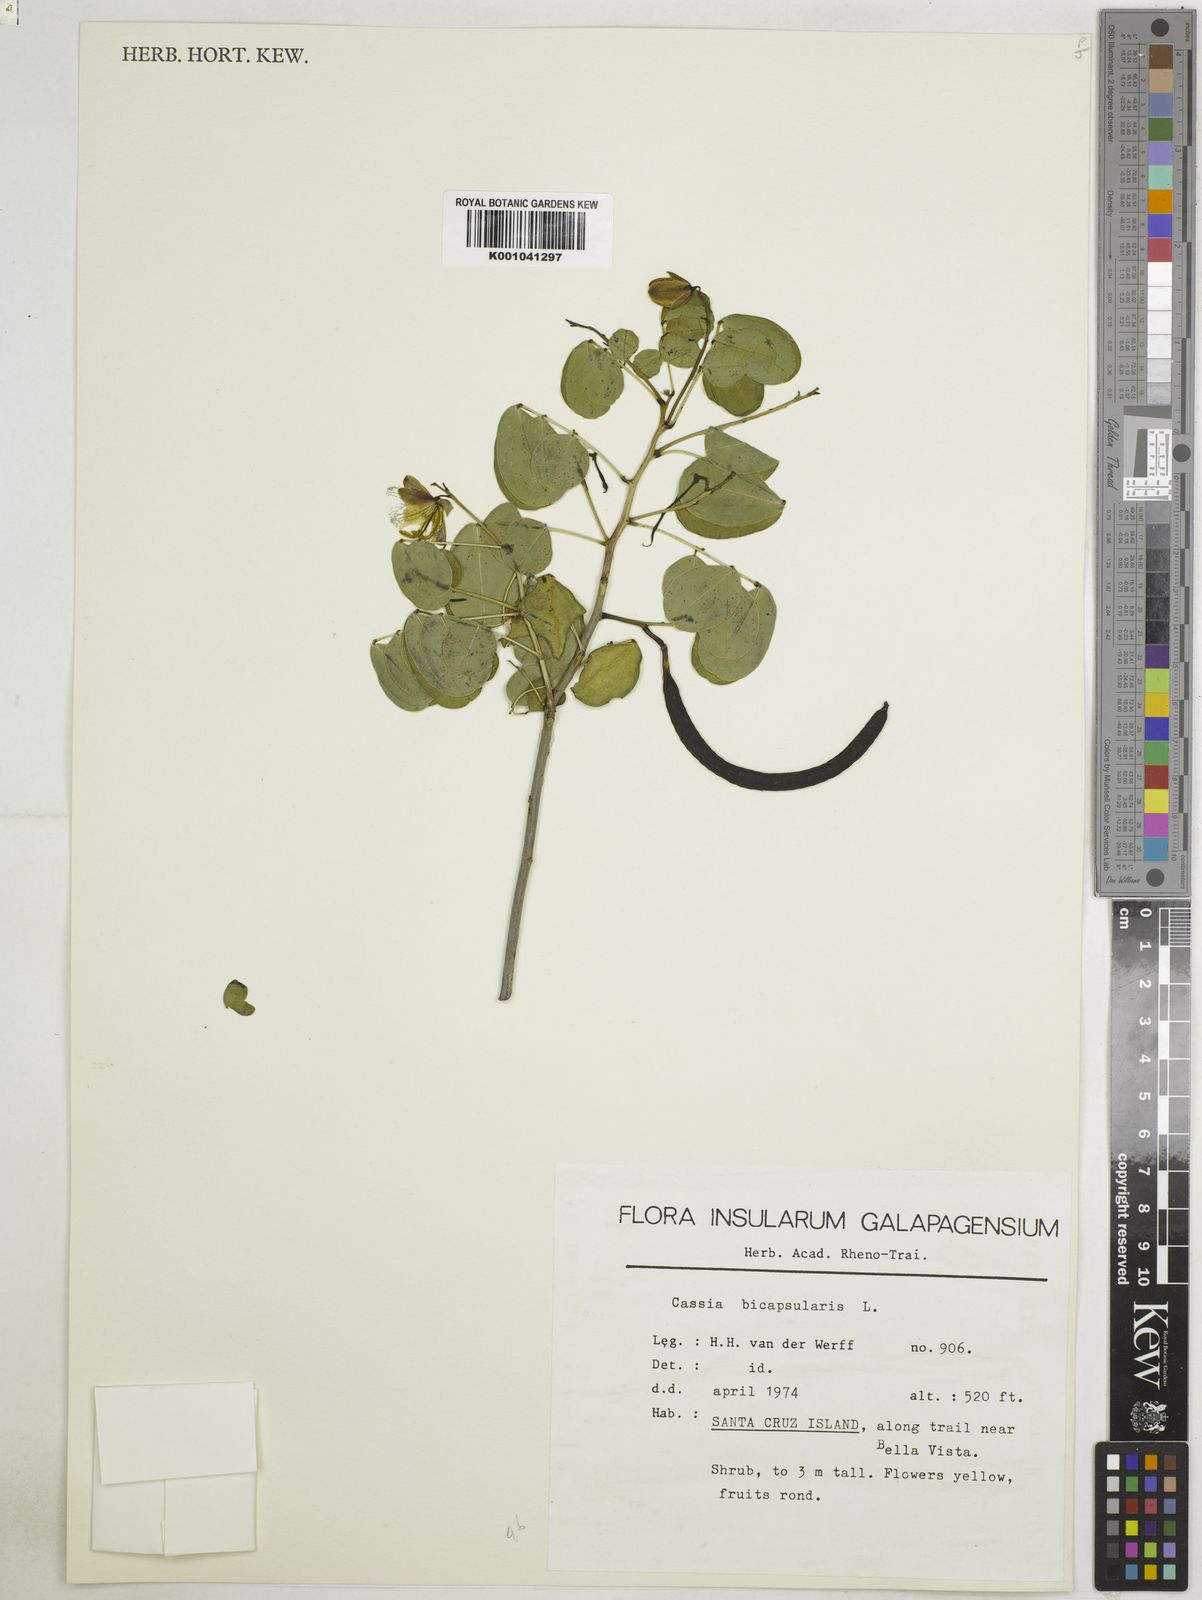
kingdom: Plantae
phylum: Tracheophyta
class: Magnoliopsida
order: Fabales
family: Fabaceae
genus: Senna
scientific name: Senna bicapsularis
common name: Christmasbush
